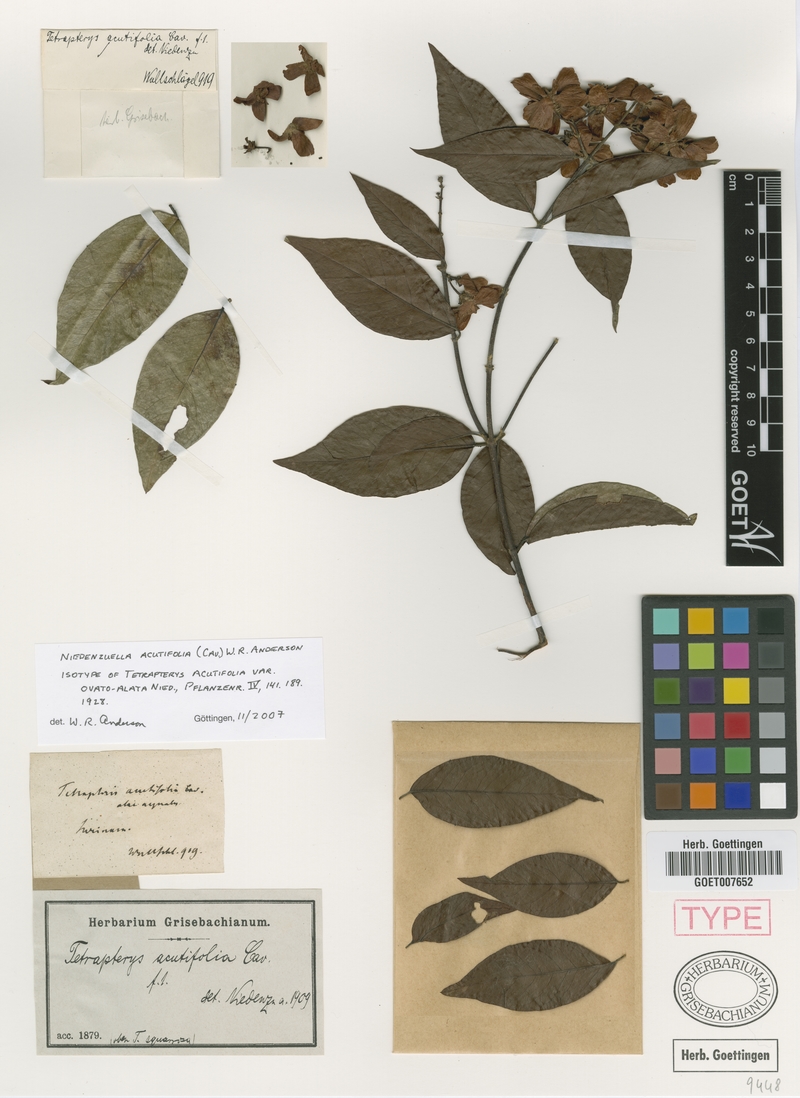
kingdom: Plantae
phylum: Tracheophyta
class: Magnoliopsida
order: Malpighiales
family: Malpighiaceae
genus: Niedenzuella
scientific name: Niedenzuella acutifolia
